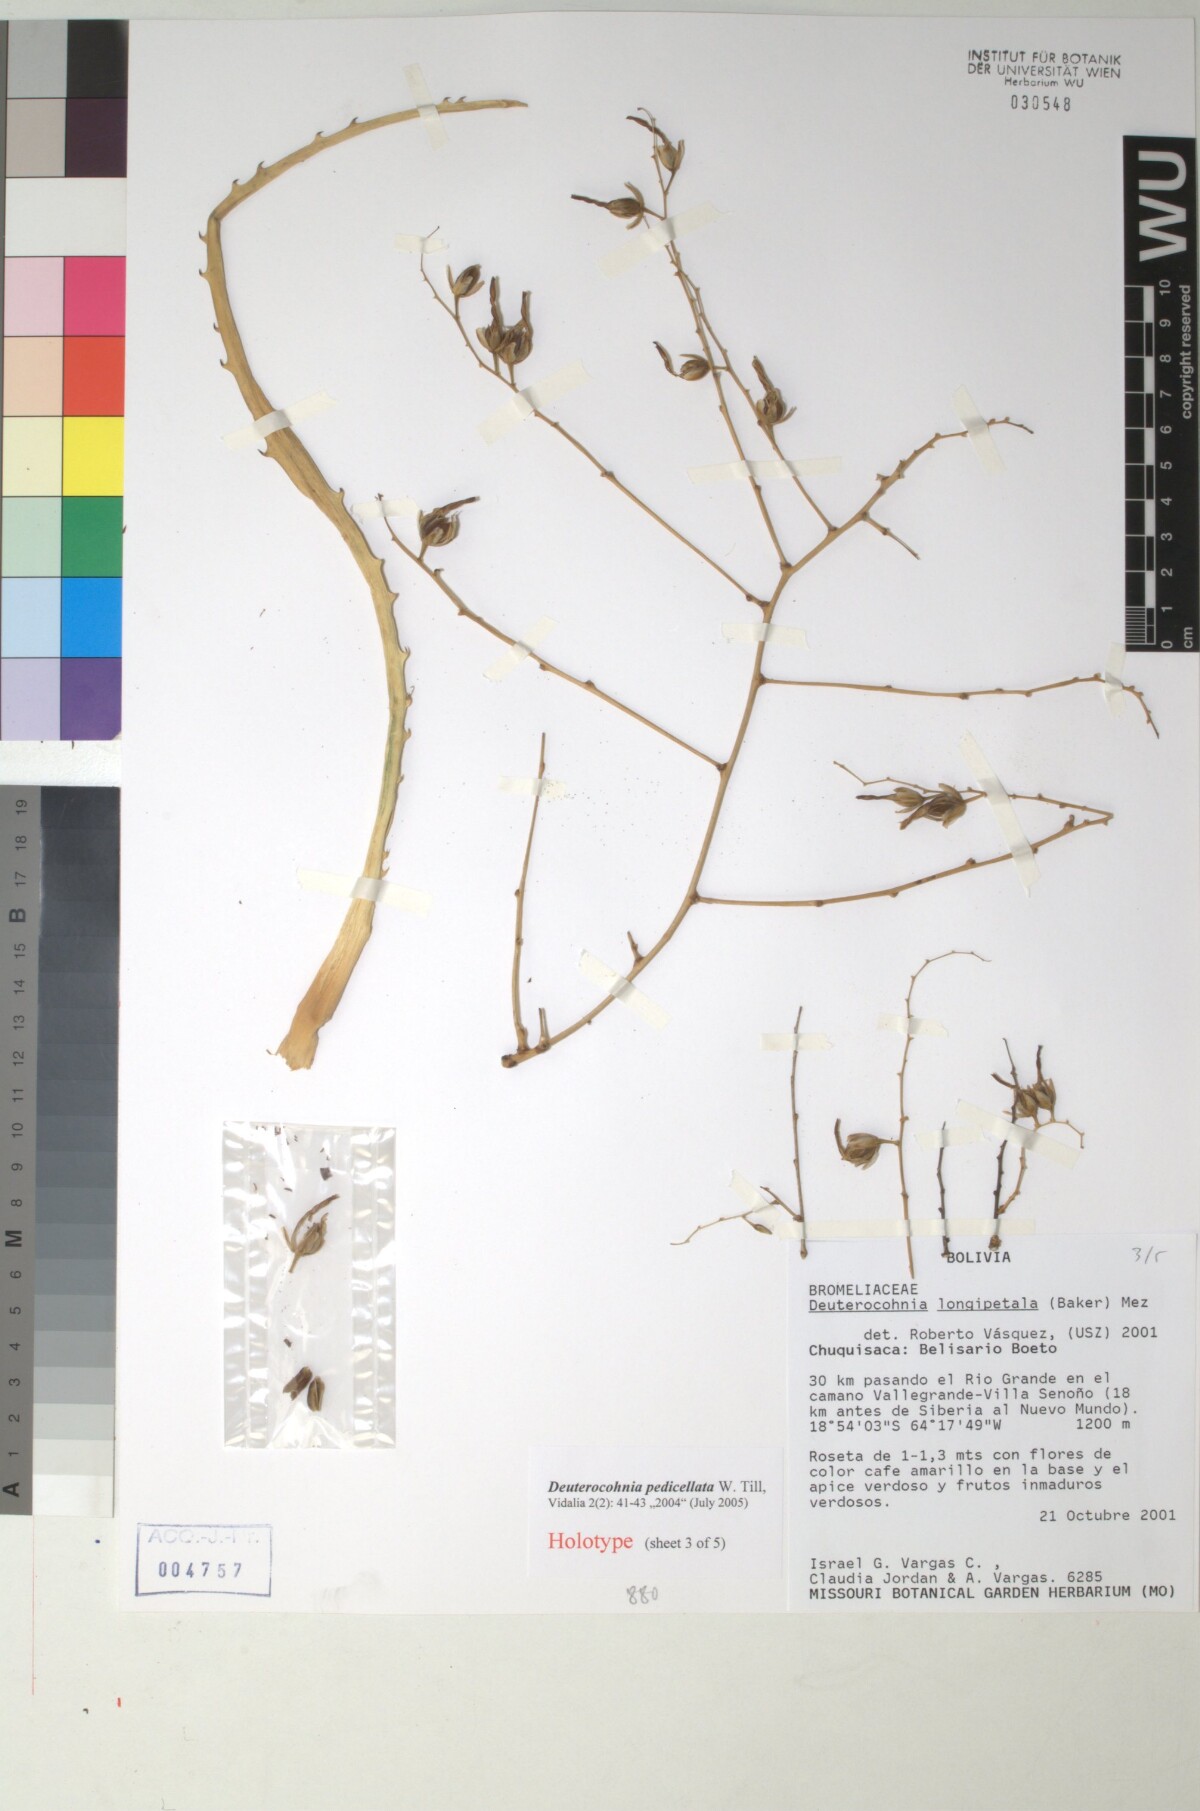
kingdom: Plantae
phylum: Tracheophyta
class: Liliopsida
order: Poales
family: Bromeliaceae
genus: Deuterocohnia
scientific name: Deuterocohnia meziana
